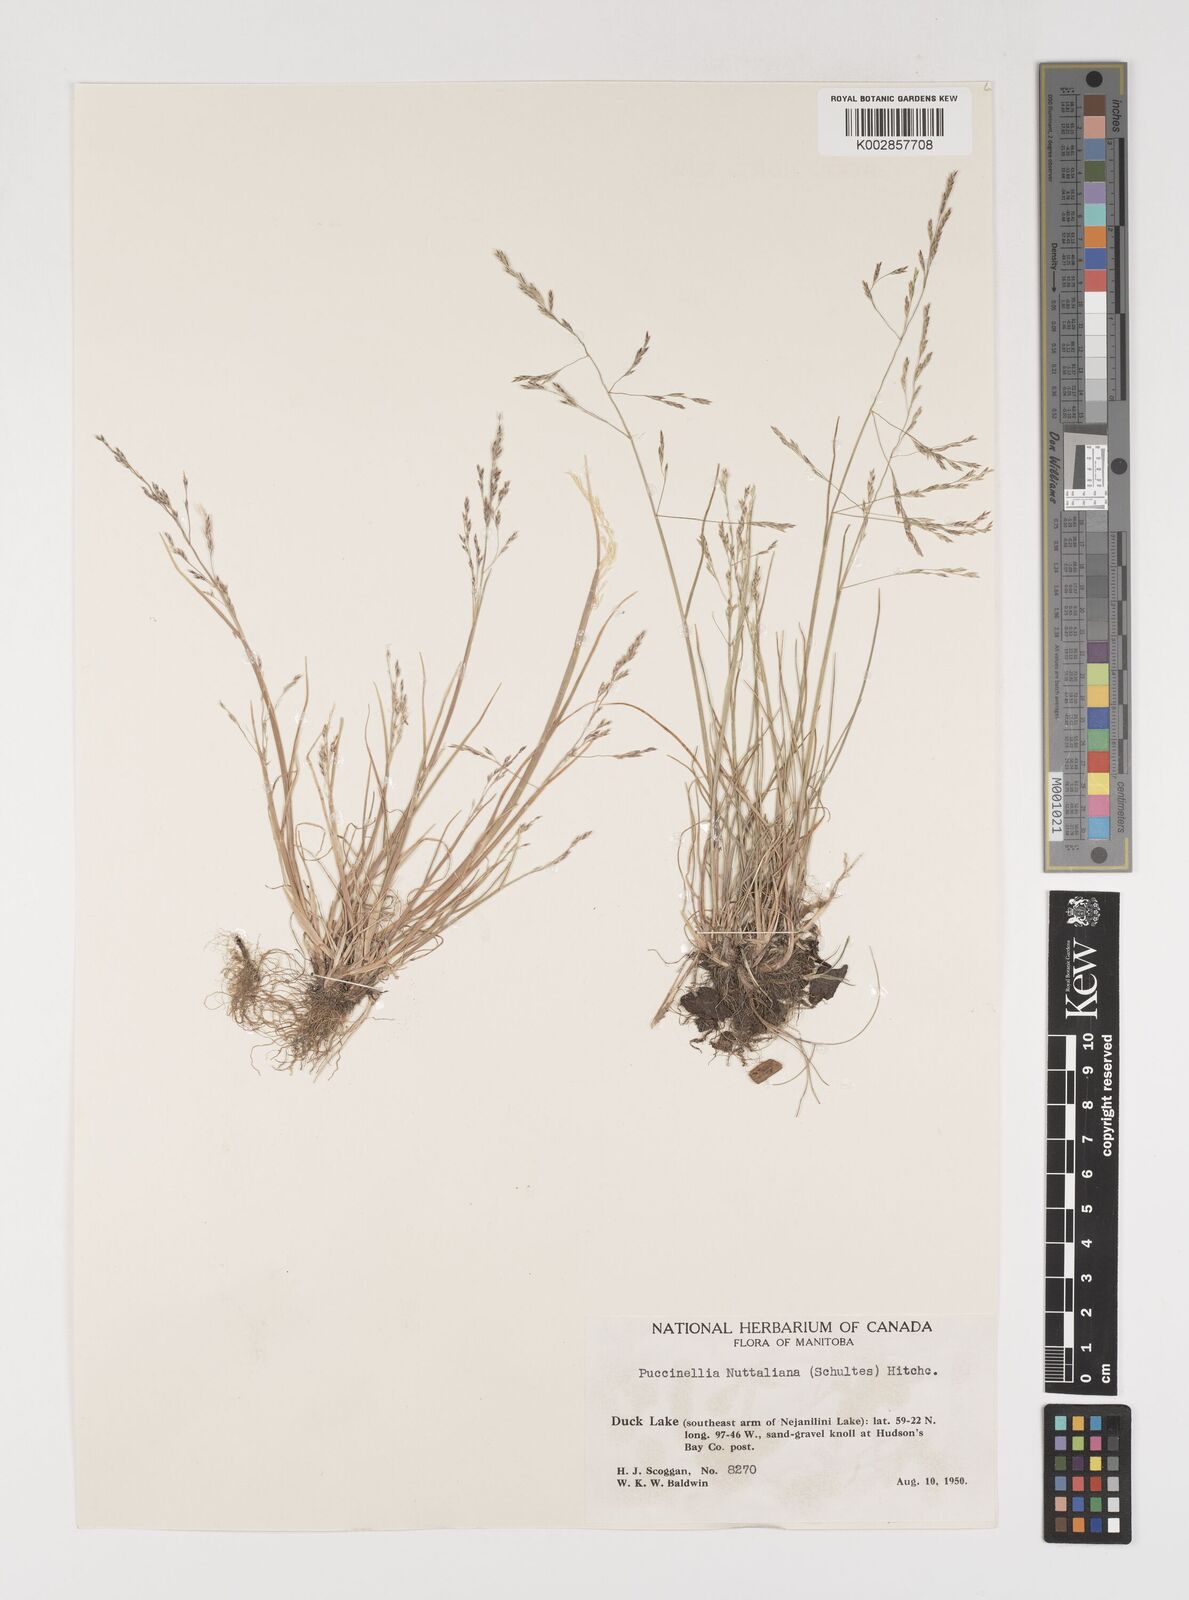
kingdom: Plantae
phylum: Tracheophyta
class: Liliopsida
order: Poales
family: Poaceae
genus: Puccinellia
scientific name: Puccinellia nuttalliana
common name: Nuttall's alkali grass
